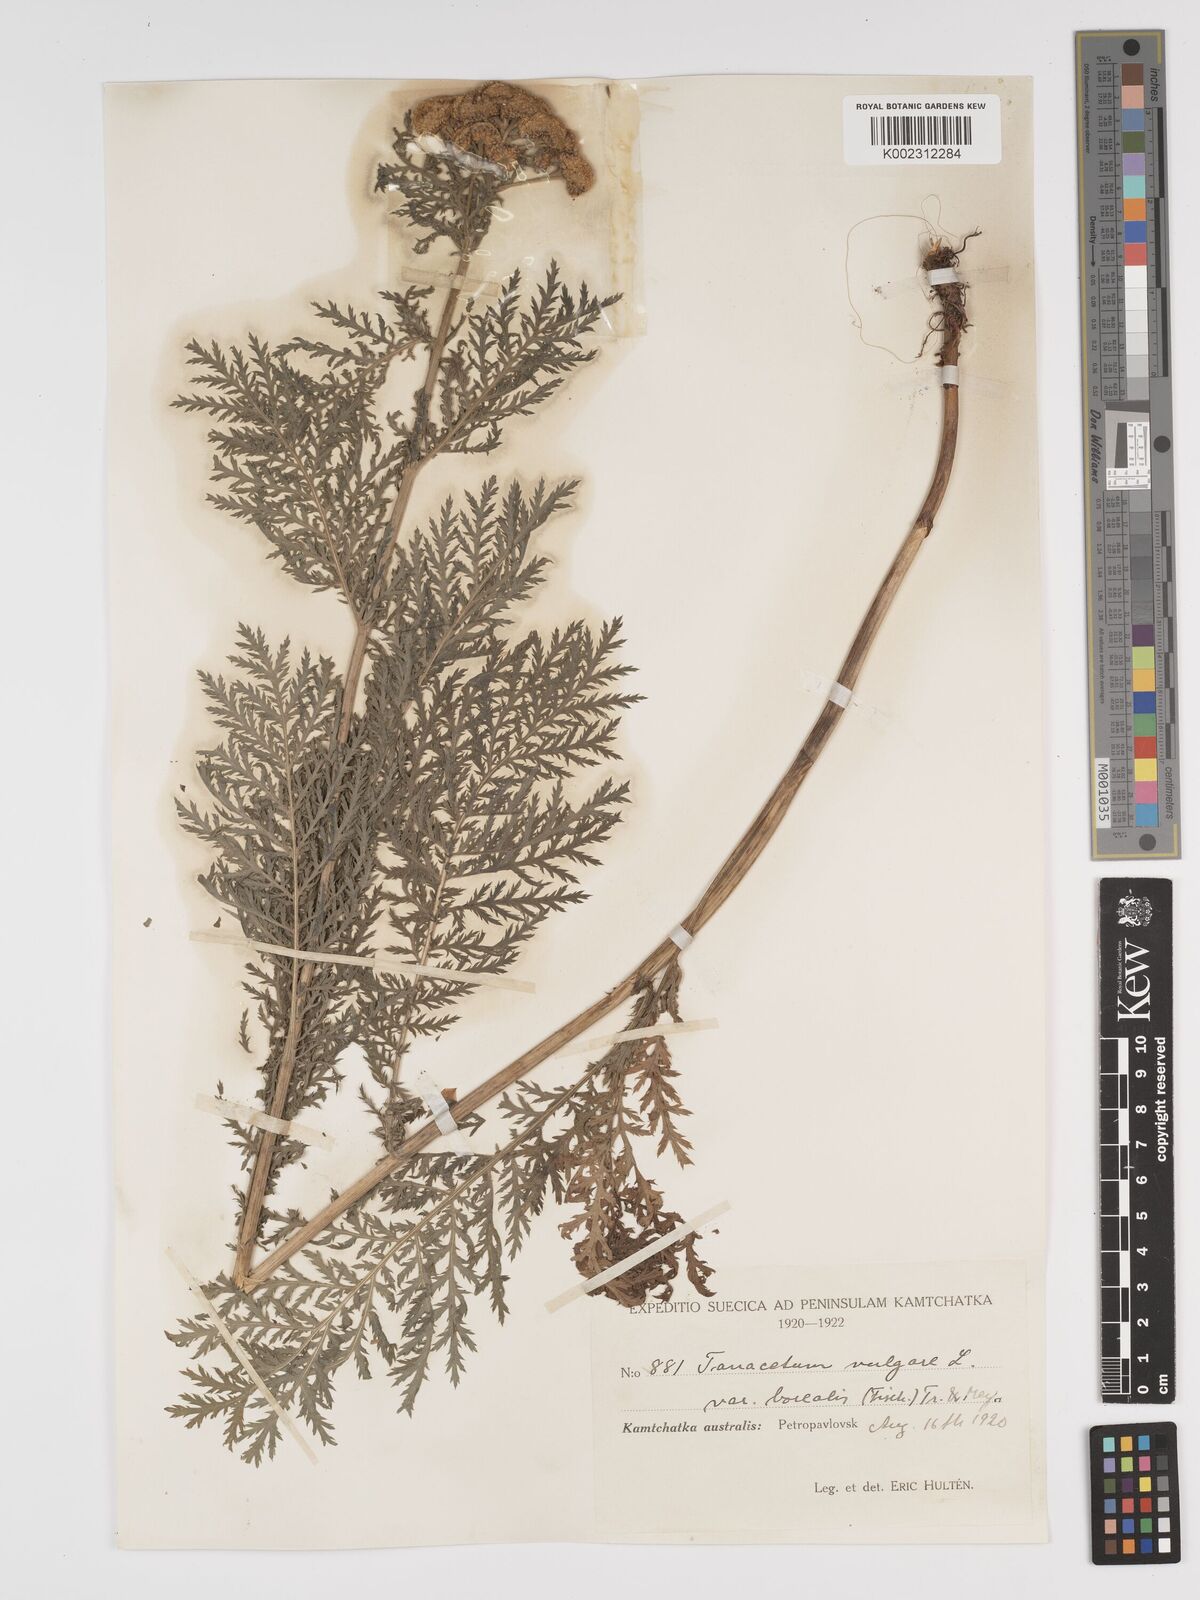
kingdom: Plantae
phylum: Tracheophyta
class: Magnoliopsida
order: Asterales
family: Asteraceae
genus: Tanacetum
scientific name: Tanacetum vulgare
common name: Common tansy
